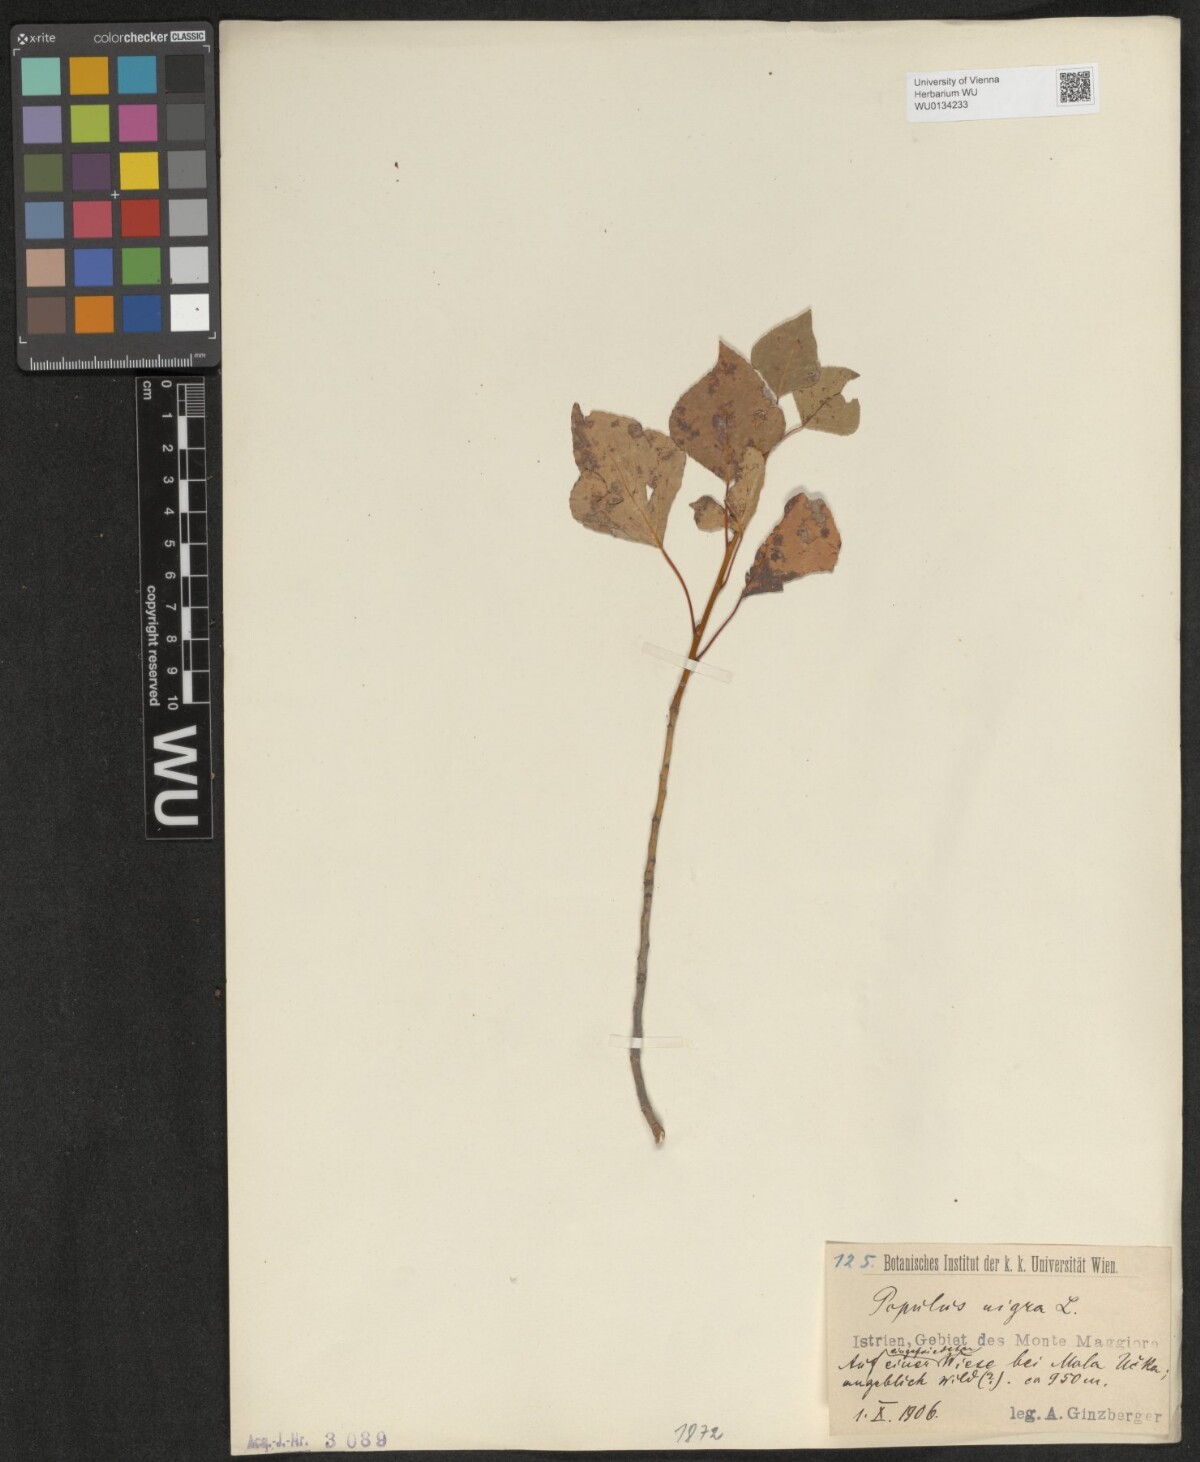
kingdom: Plantae
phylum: Tracheophyta
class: Magnoliopsida
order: Malpighiales
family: Salicaceae
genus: Populus
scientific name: Populus nigra
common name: Black poplar
